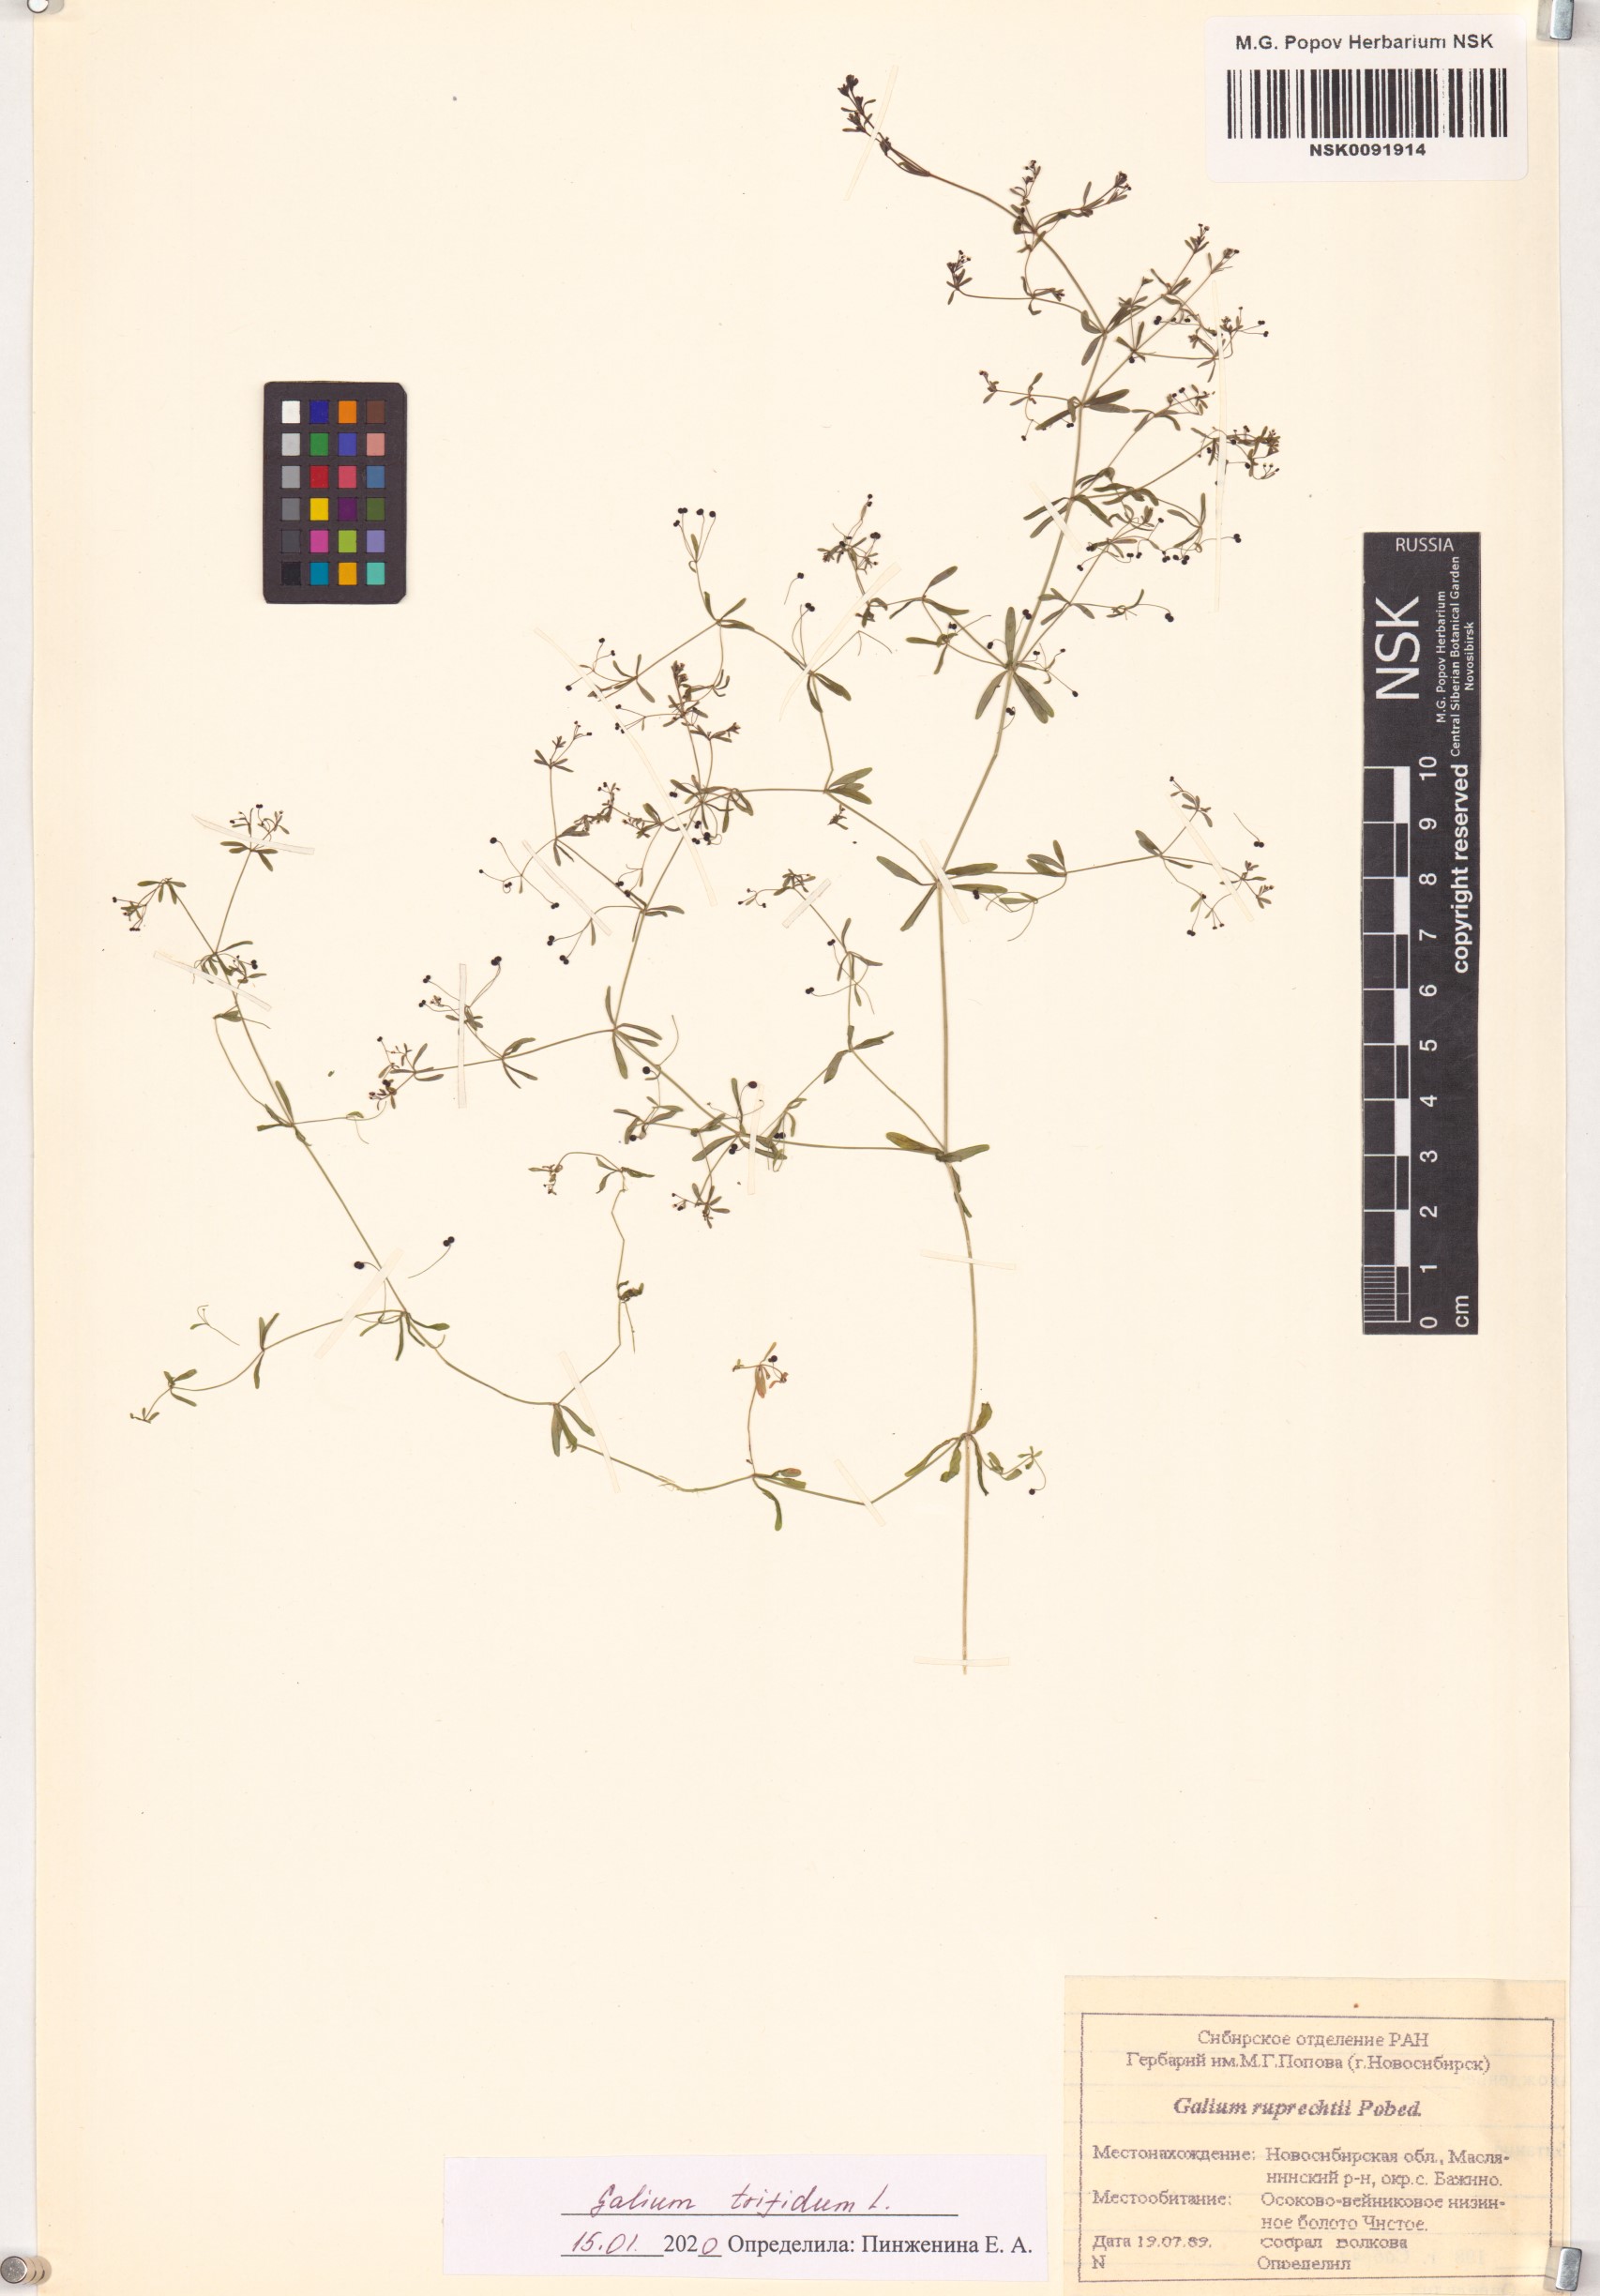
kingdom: Plantae
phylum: Tracheophyta
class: Magnoliopsida
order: Gentianales
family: Rubiaceae
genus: Galium
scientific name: Galium trifidum
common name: Small bedstraw
